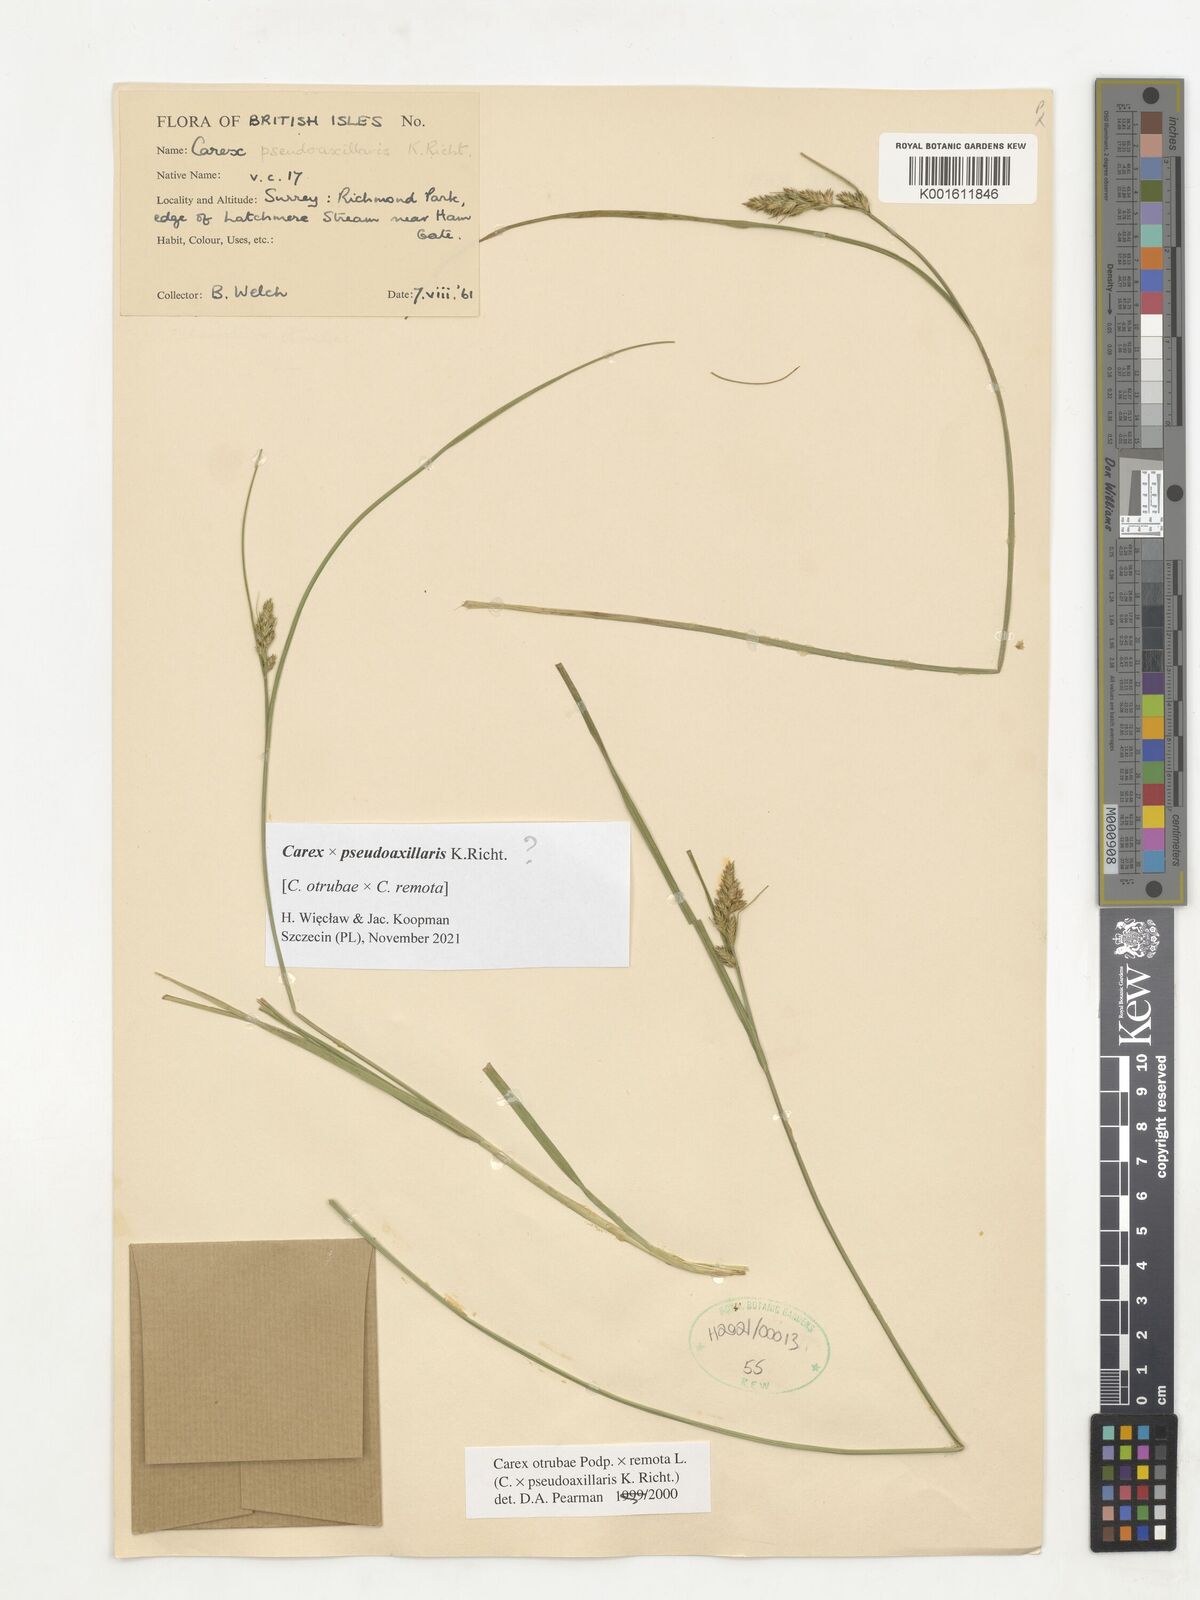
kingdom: Plantae
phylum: Tracheophyta
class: Liliopsida
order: Poales
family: Cyperaceae
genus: Carex
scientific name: Carex pseudoaxillaris
